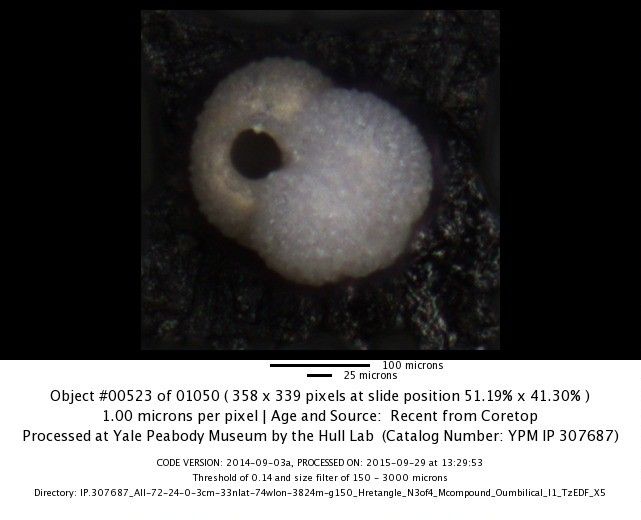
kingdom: Chromista
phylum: Foraminifera
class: Globothalamea
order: Rotaliida
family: Globigerinidae
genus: Globigerinoides
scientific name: Globigerinoides ruber
